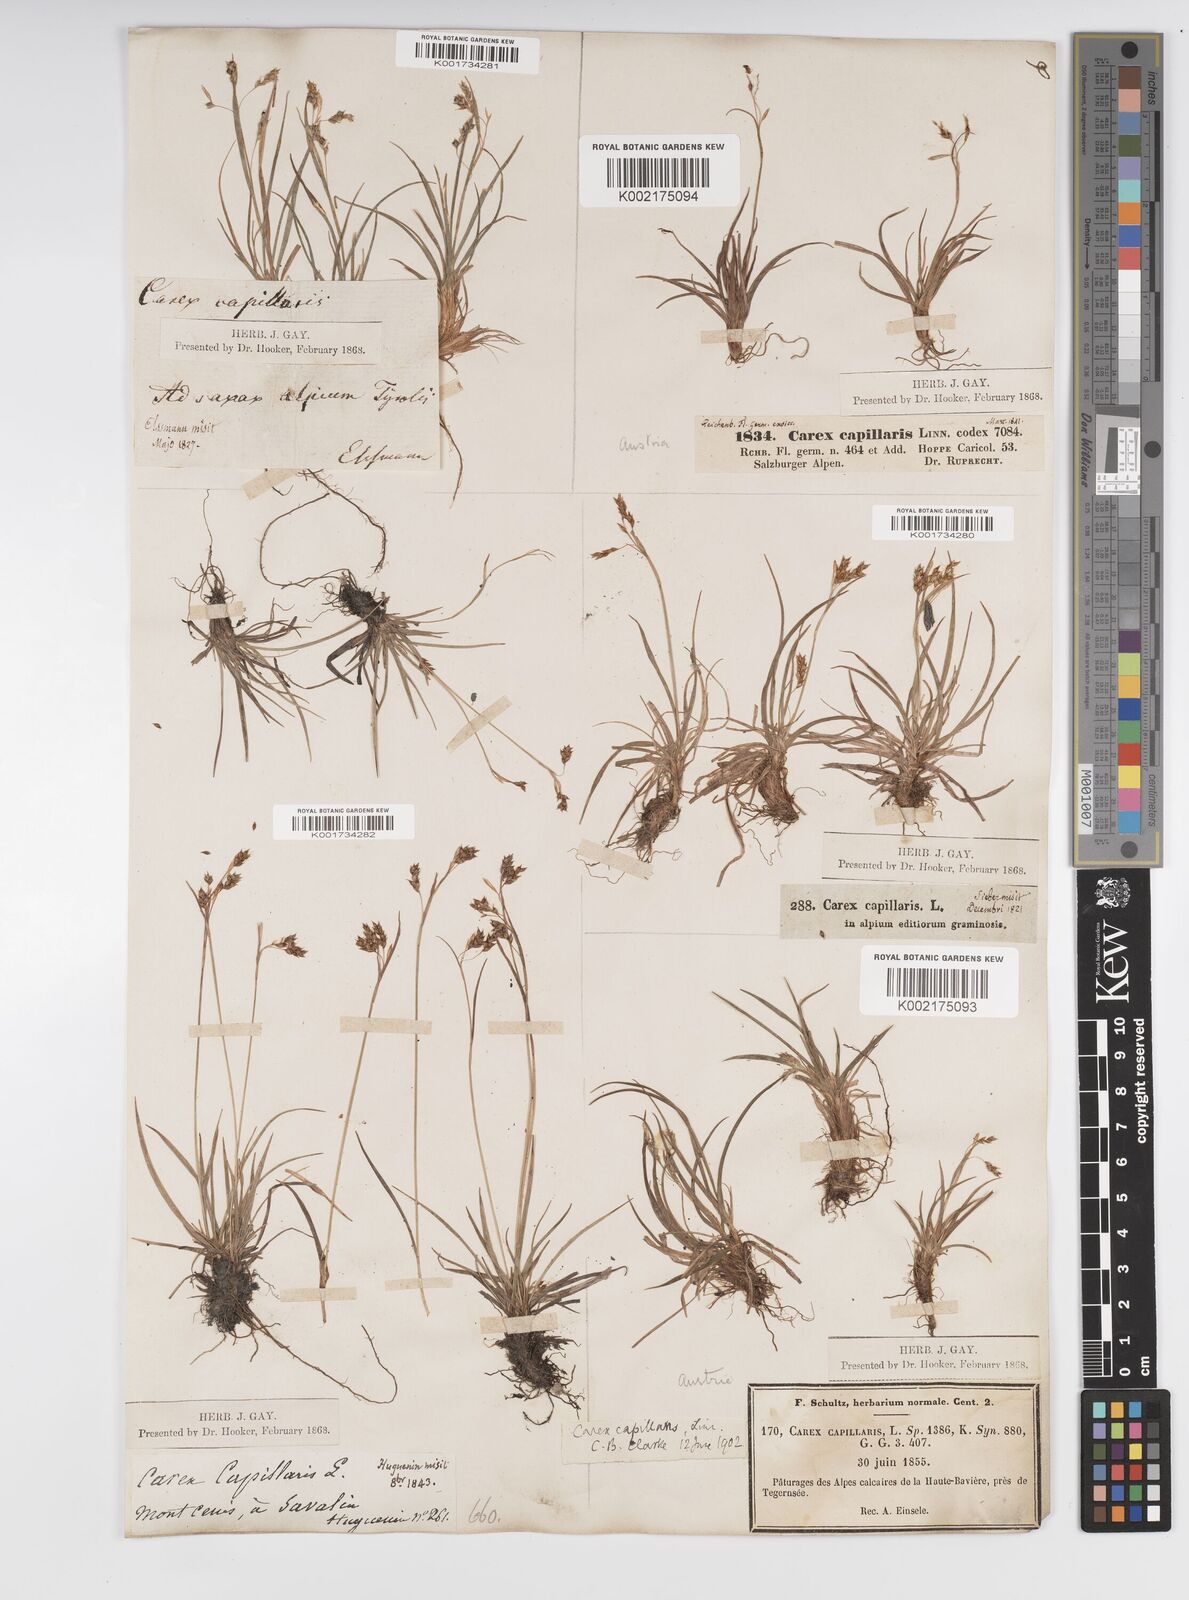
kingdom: Plantae
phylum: Tracheophyta
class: Liliopsida
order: Poales
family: Cyperaceae
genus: Carex
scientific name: Carex capillaris
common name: Hair sedge
